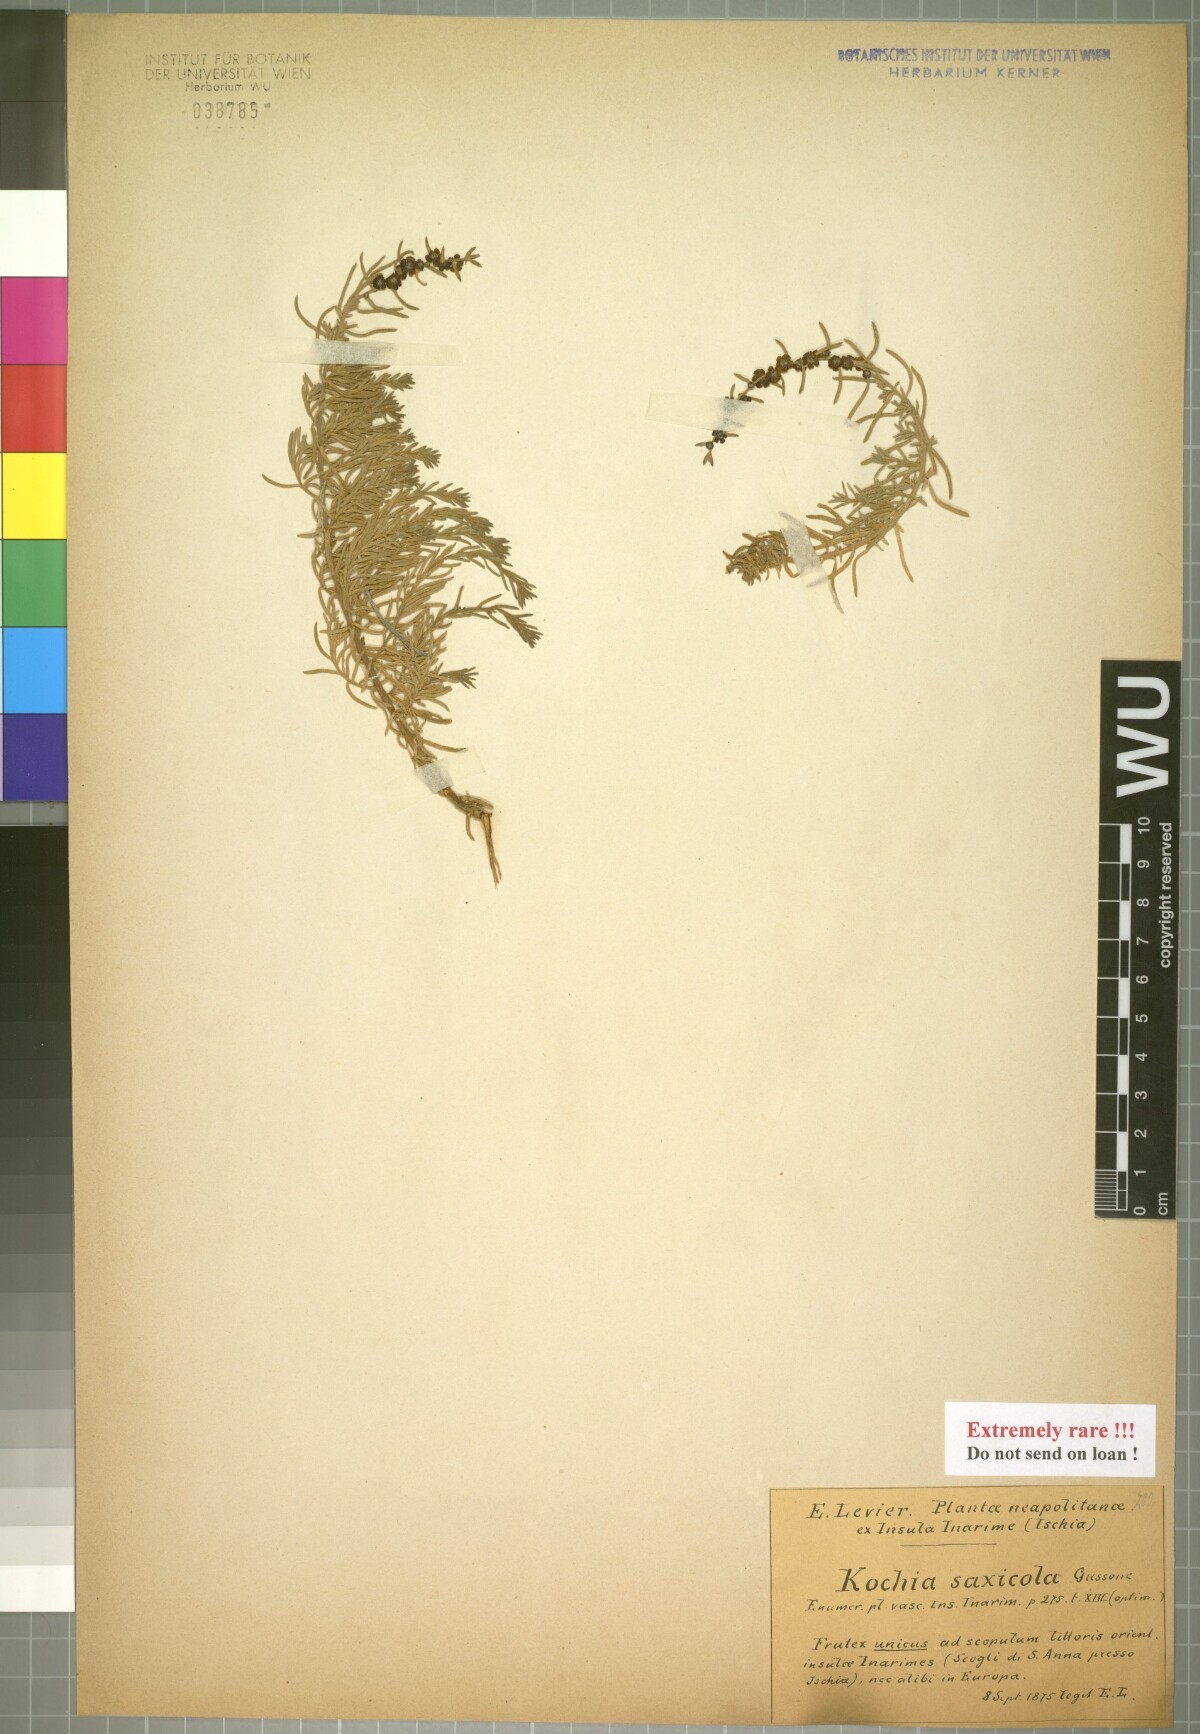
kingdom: Plantae
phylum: Tracheophyta
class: Magnoliopsida
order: Caryophyllales
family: Amaranthaceae
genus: Eokochia
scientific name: Eokochia saxicola
